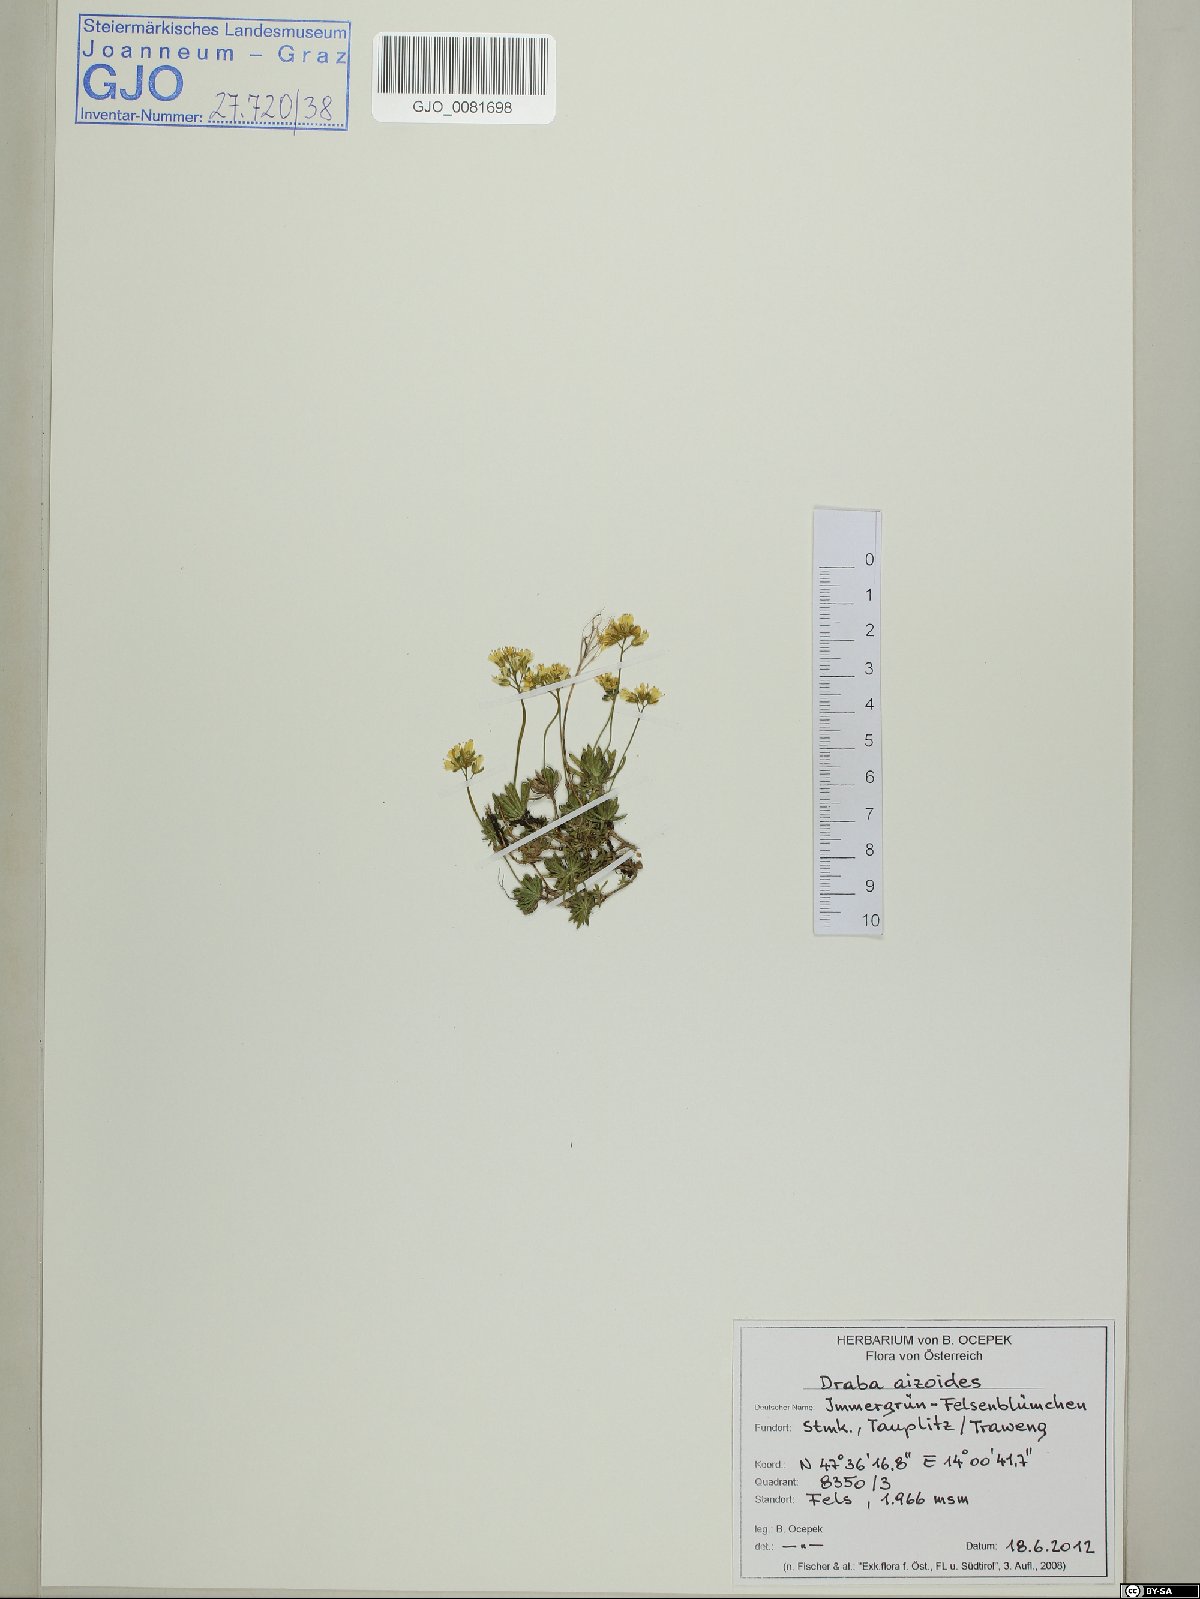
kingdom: Plantae
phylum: Tracheophyta
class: Magnoliopsida
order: Brassicales
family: Brassicaceae
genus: Draba
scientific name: Draba aizoides
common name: Yellow whitlowgrass
